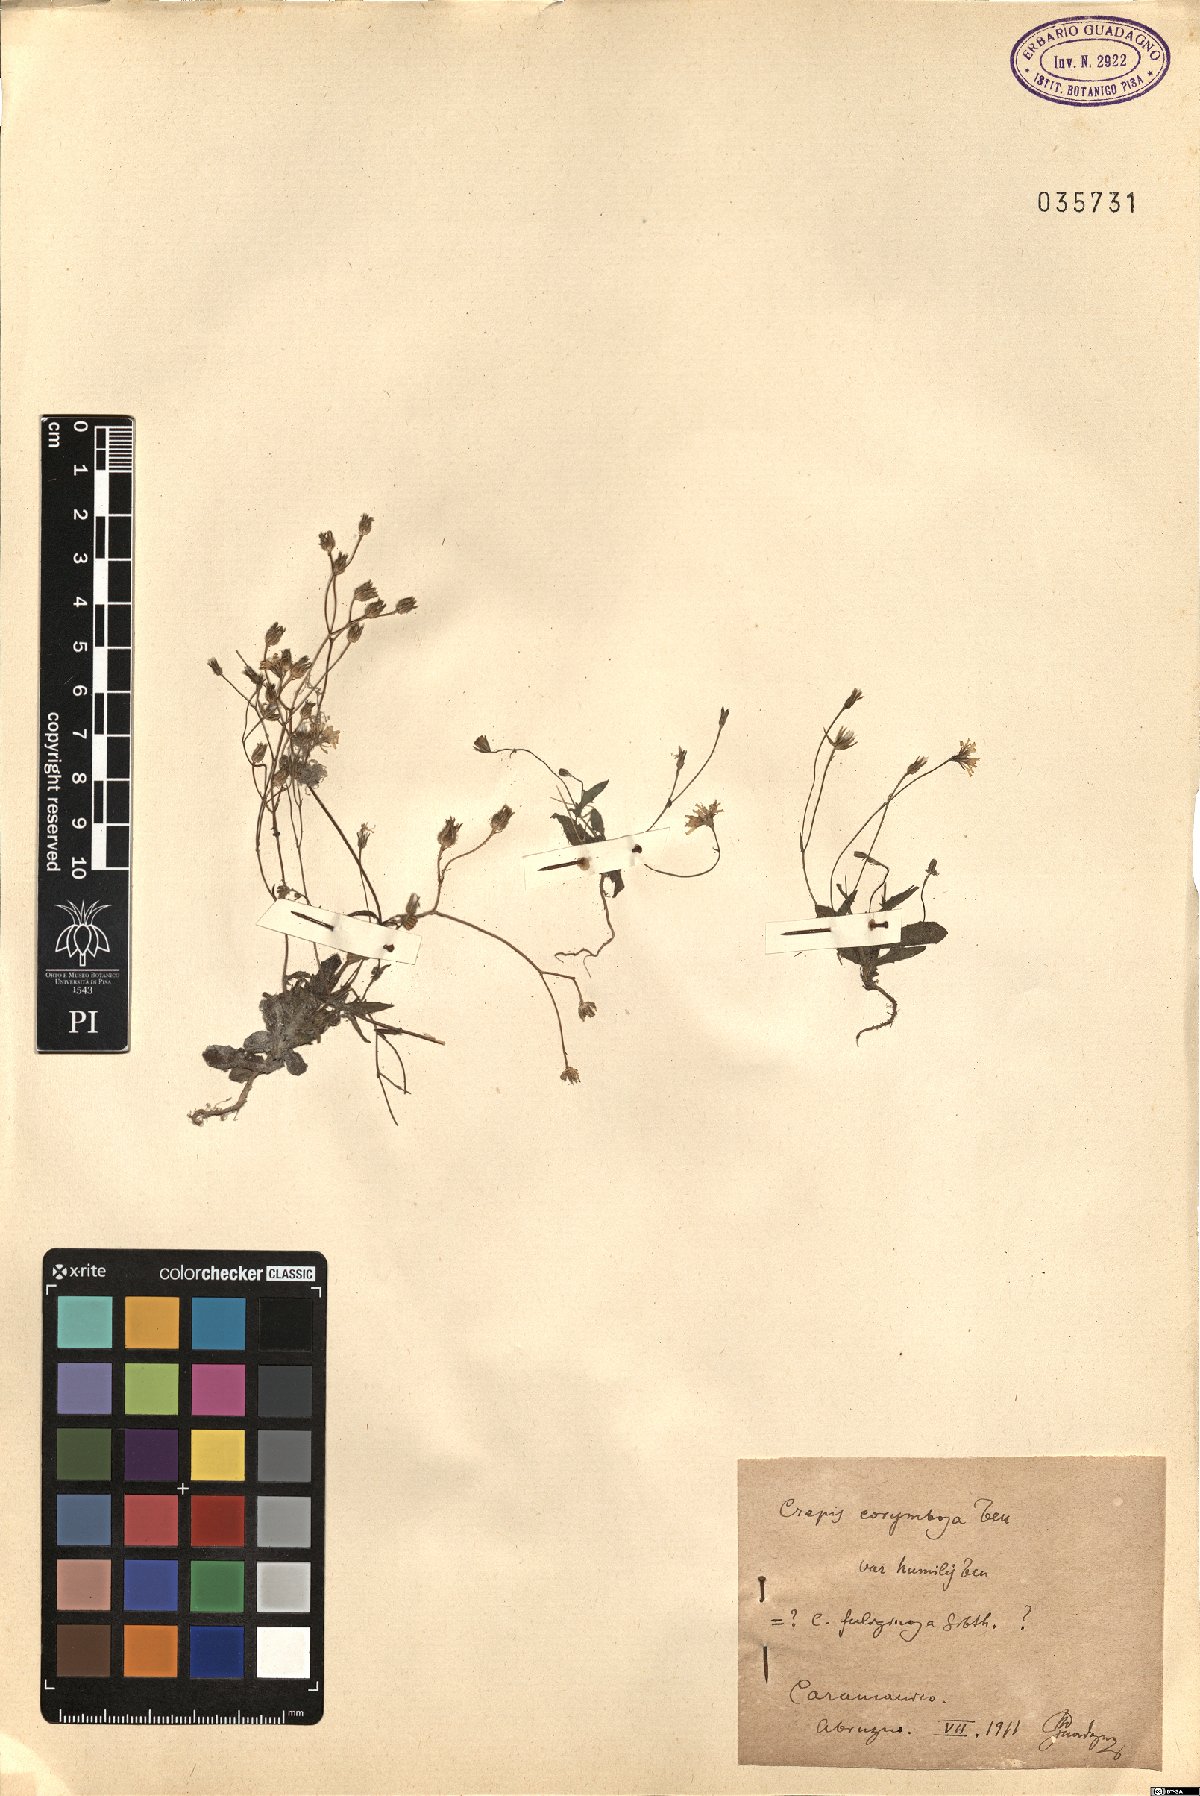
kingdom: Plantae
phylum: Tracheophyta
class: Magnoliopsida
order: Asterales
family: Asteraceae
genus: Crepis
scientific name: Crepis neglecta
